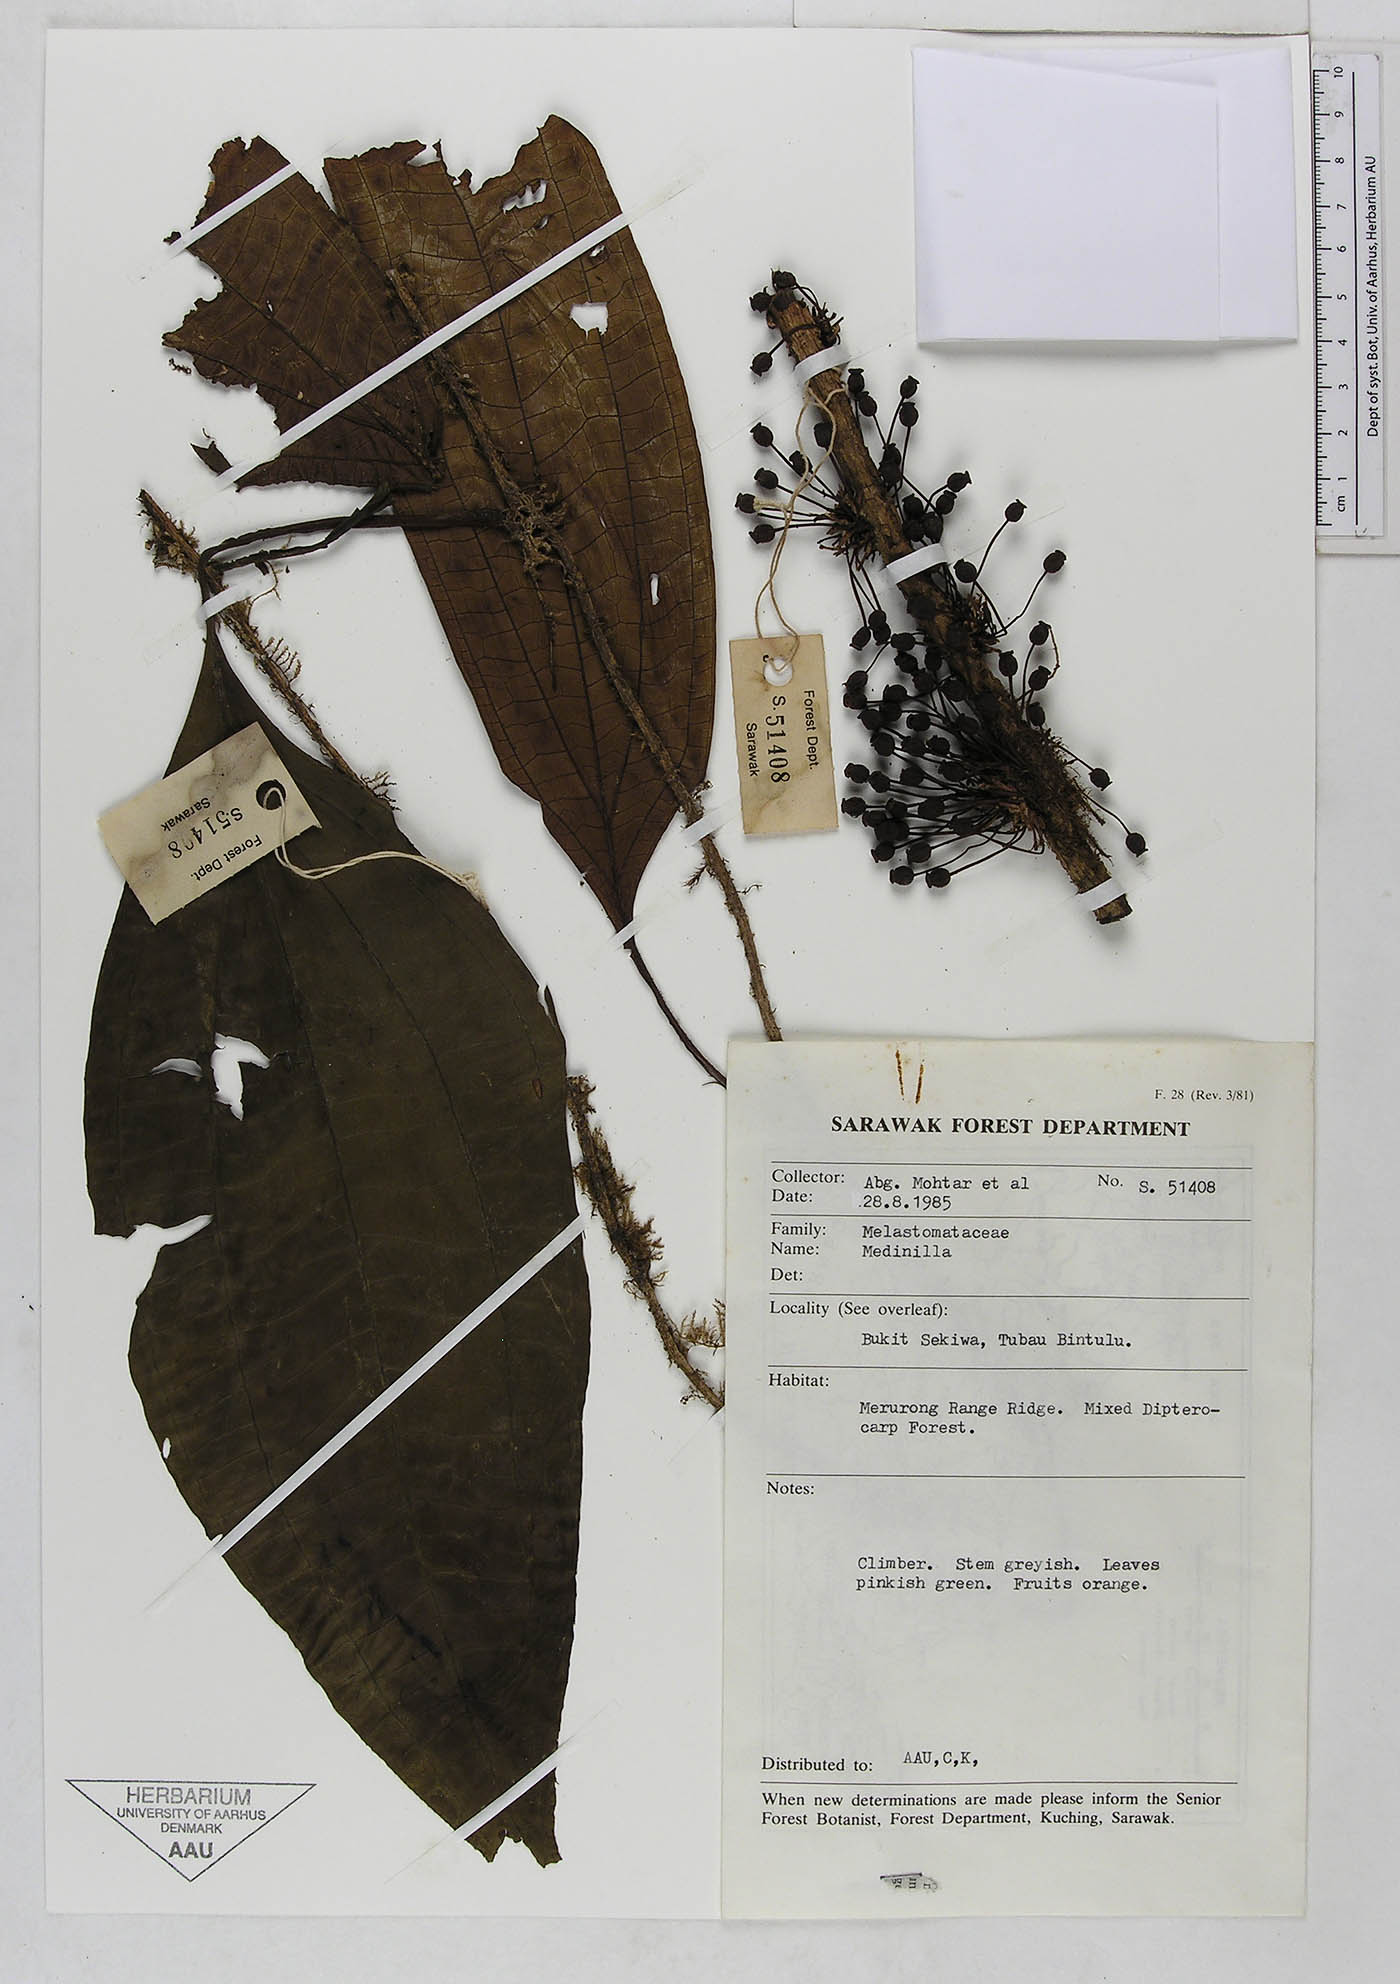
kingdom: Plantae
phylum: Tracheophyta
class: Magnoliopsida
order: Myrtales
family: Melastomataceae
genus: Heteroblemma
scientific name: Heteroblemma decurrens
